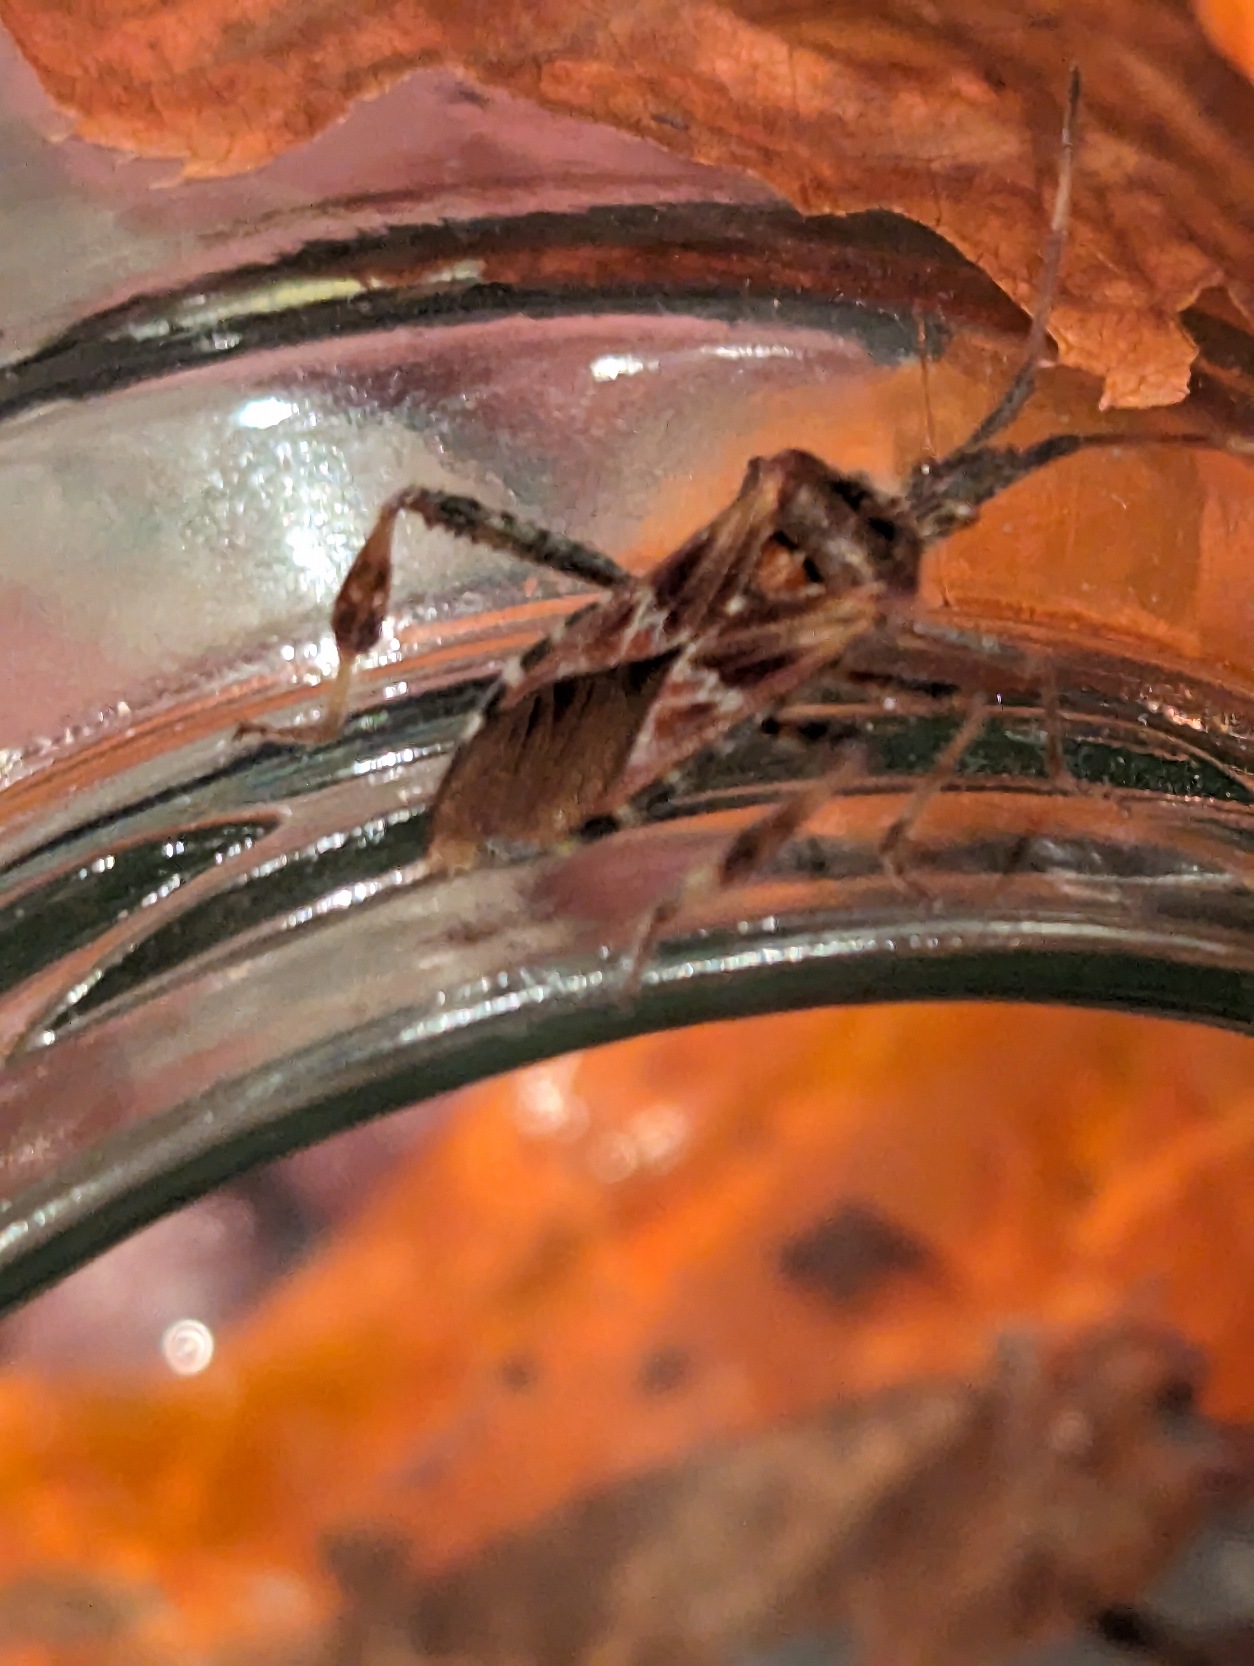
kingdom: Animalia
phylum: Arthropoda
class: Insecta
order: Hemiptera
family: Coreidae
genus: Leptoglossus
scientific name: Leptoglossus occidentalis
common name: Amerikansk fyrretæge
